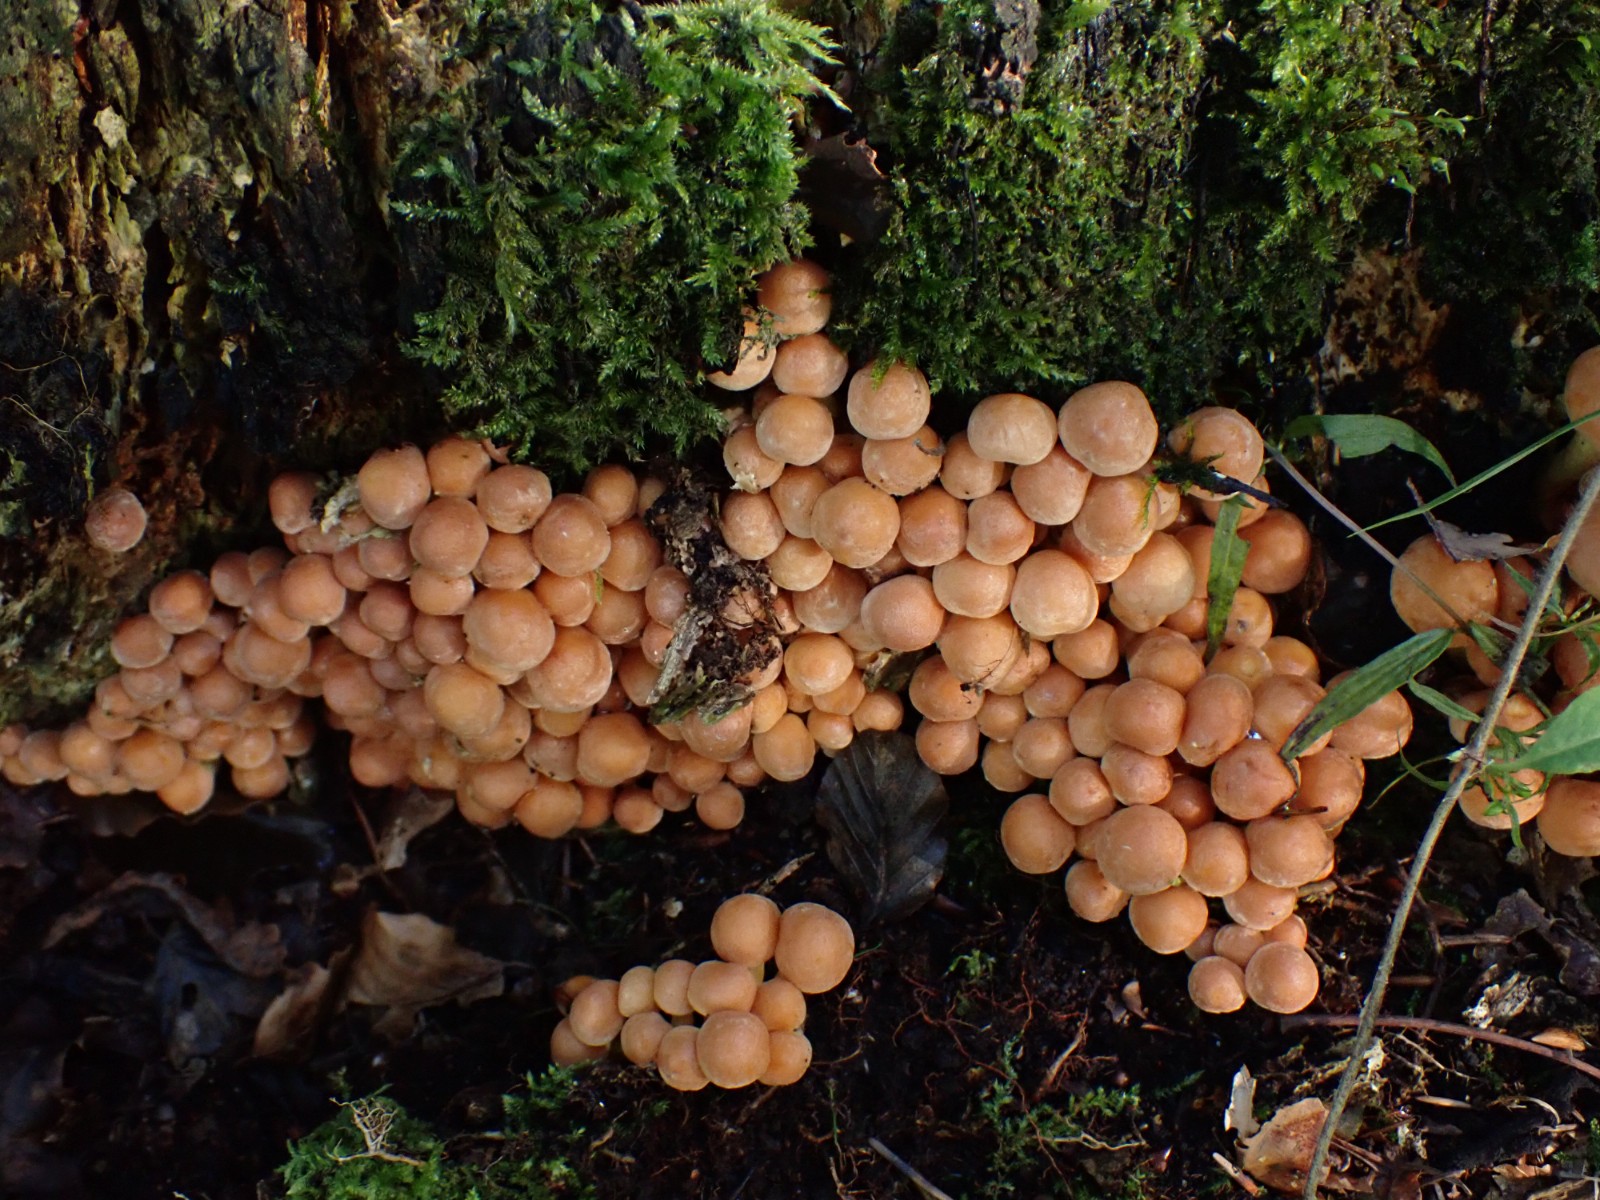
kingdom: Fungi
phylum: Basidiomycota
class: Agaricomycetes
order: Agaricales
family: Strophariaceae
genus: Hypholoma
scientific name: Hypholoma fasciculare
